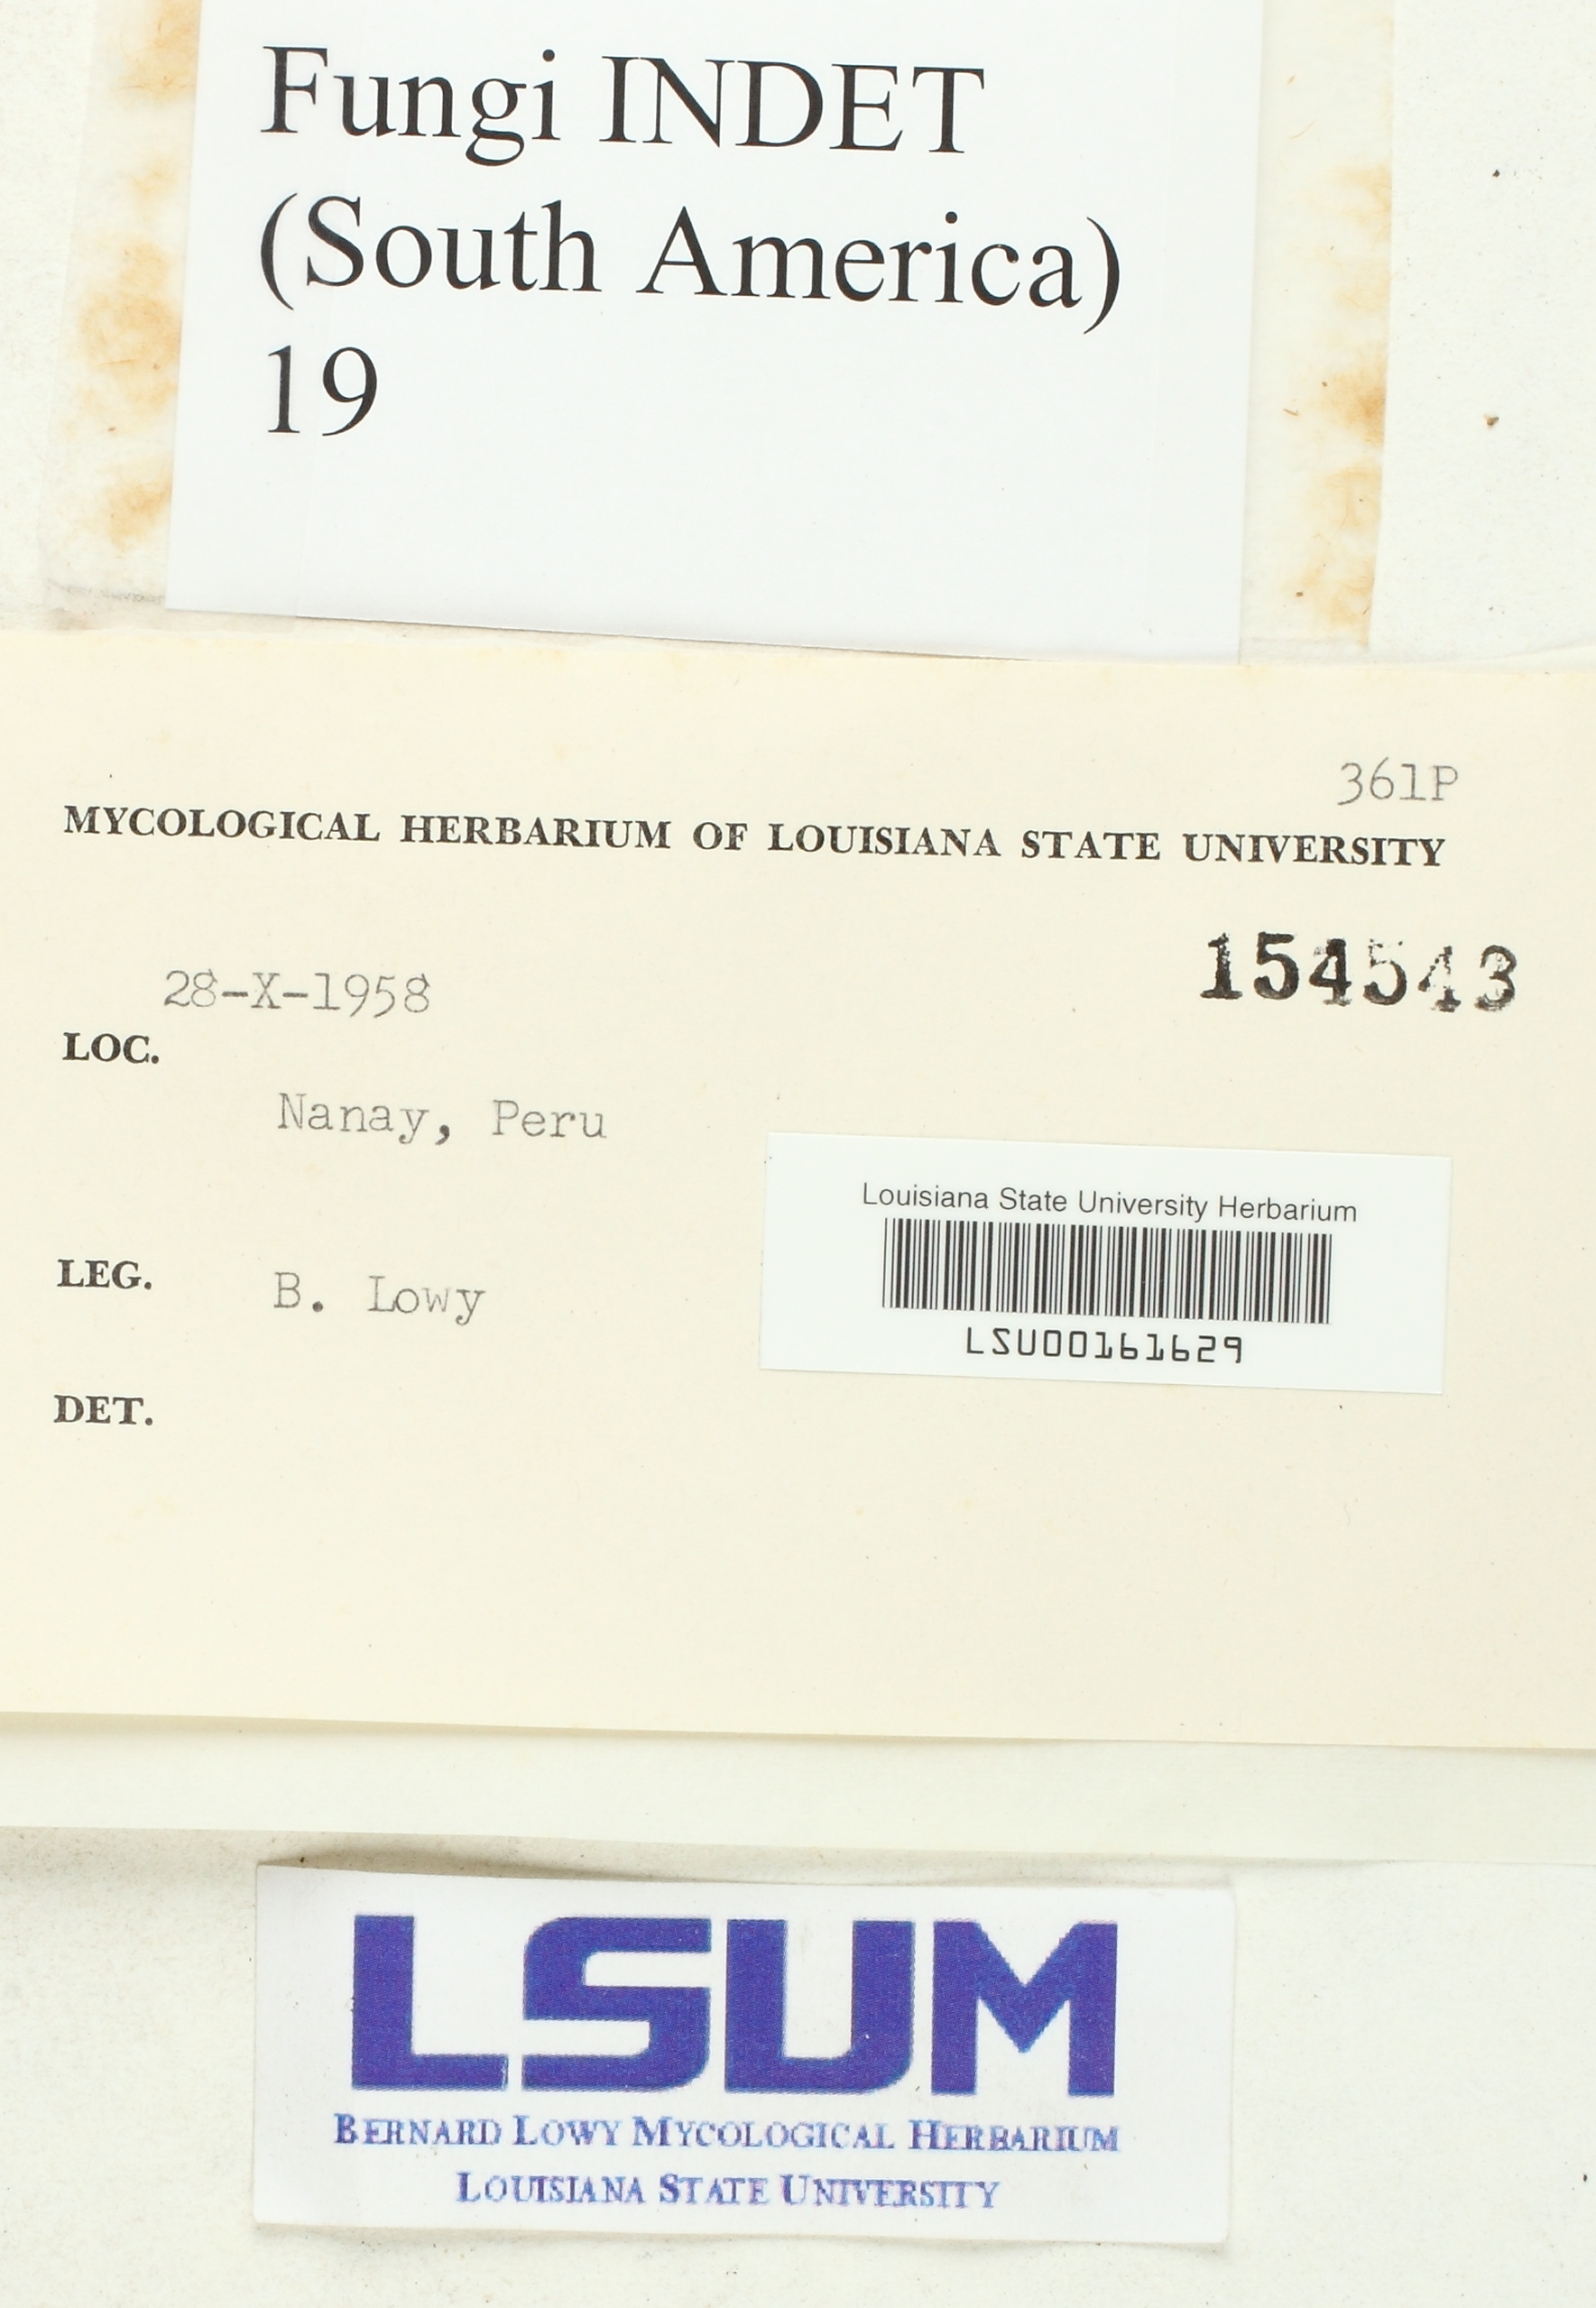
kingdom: Fungi
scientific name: Fungi
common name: Fungi
